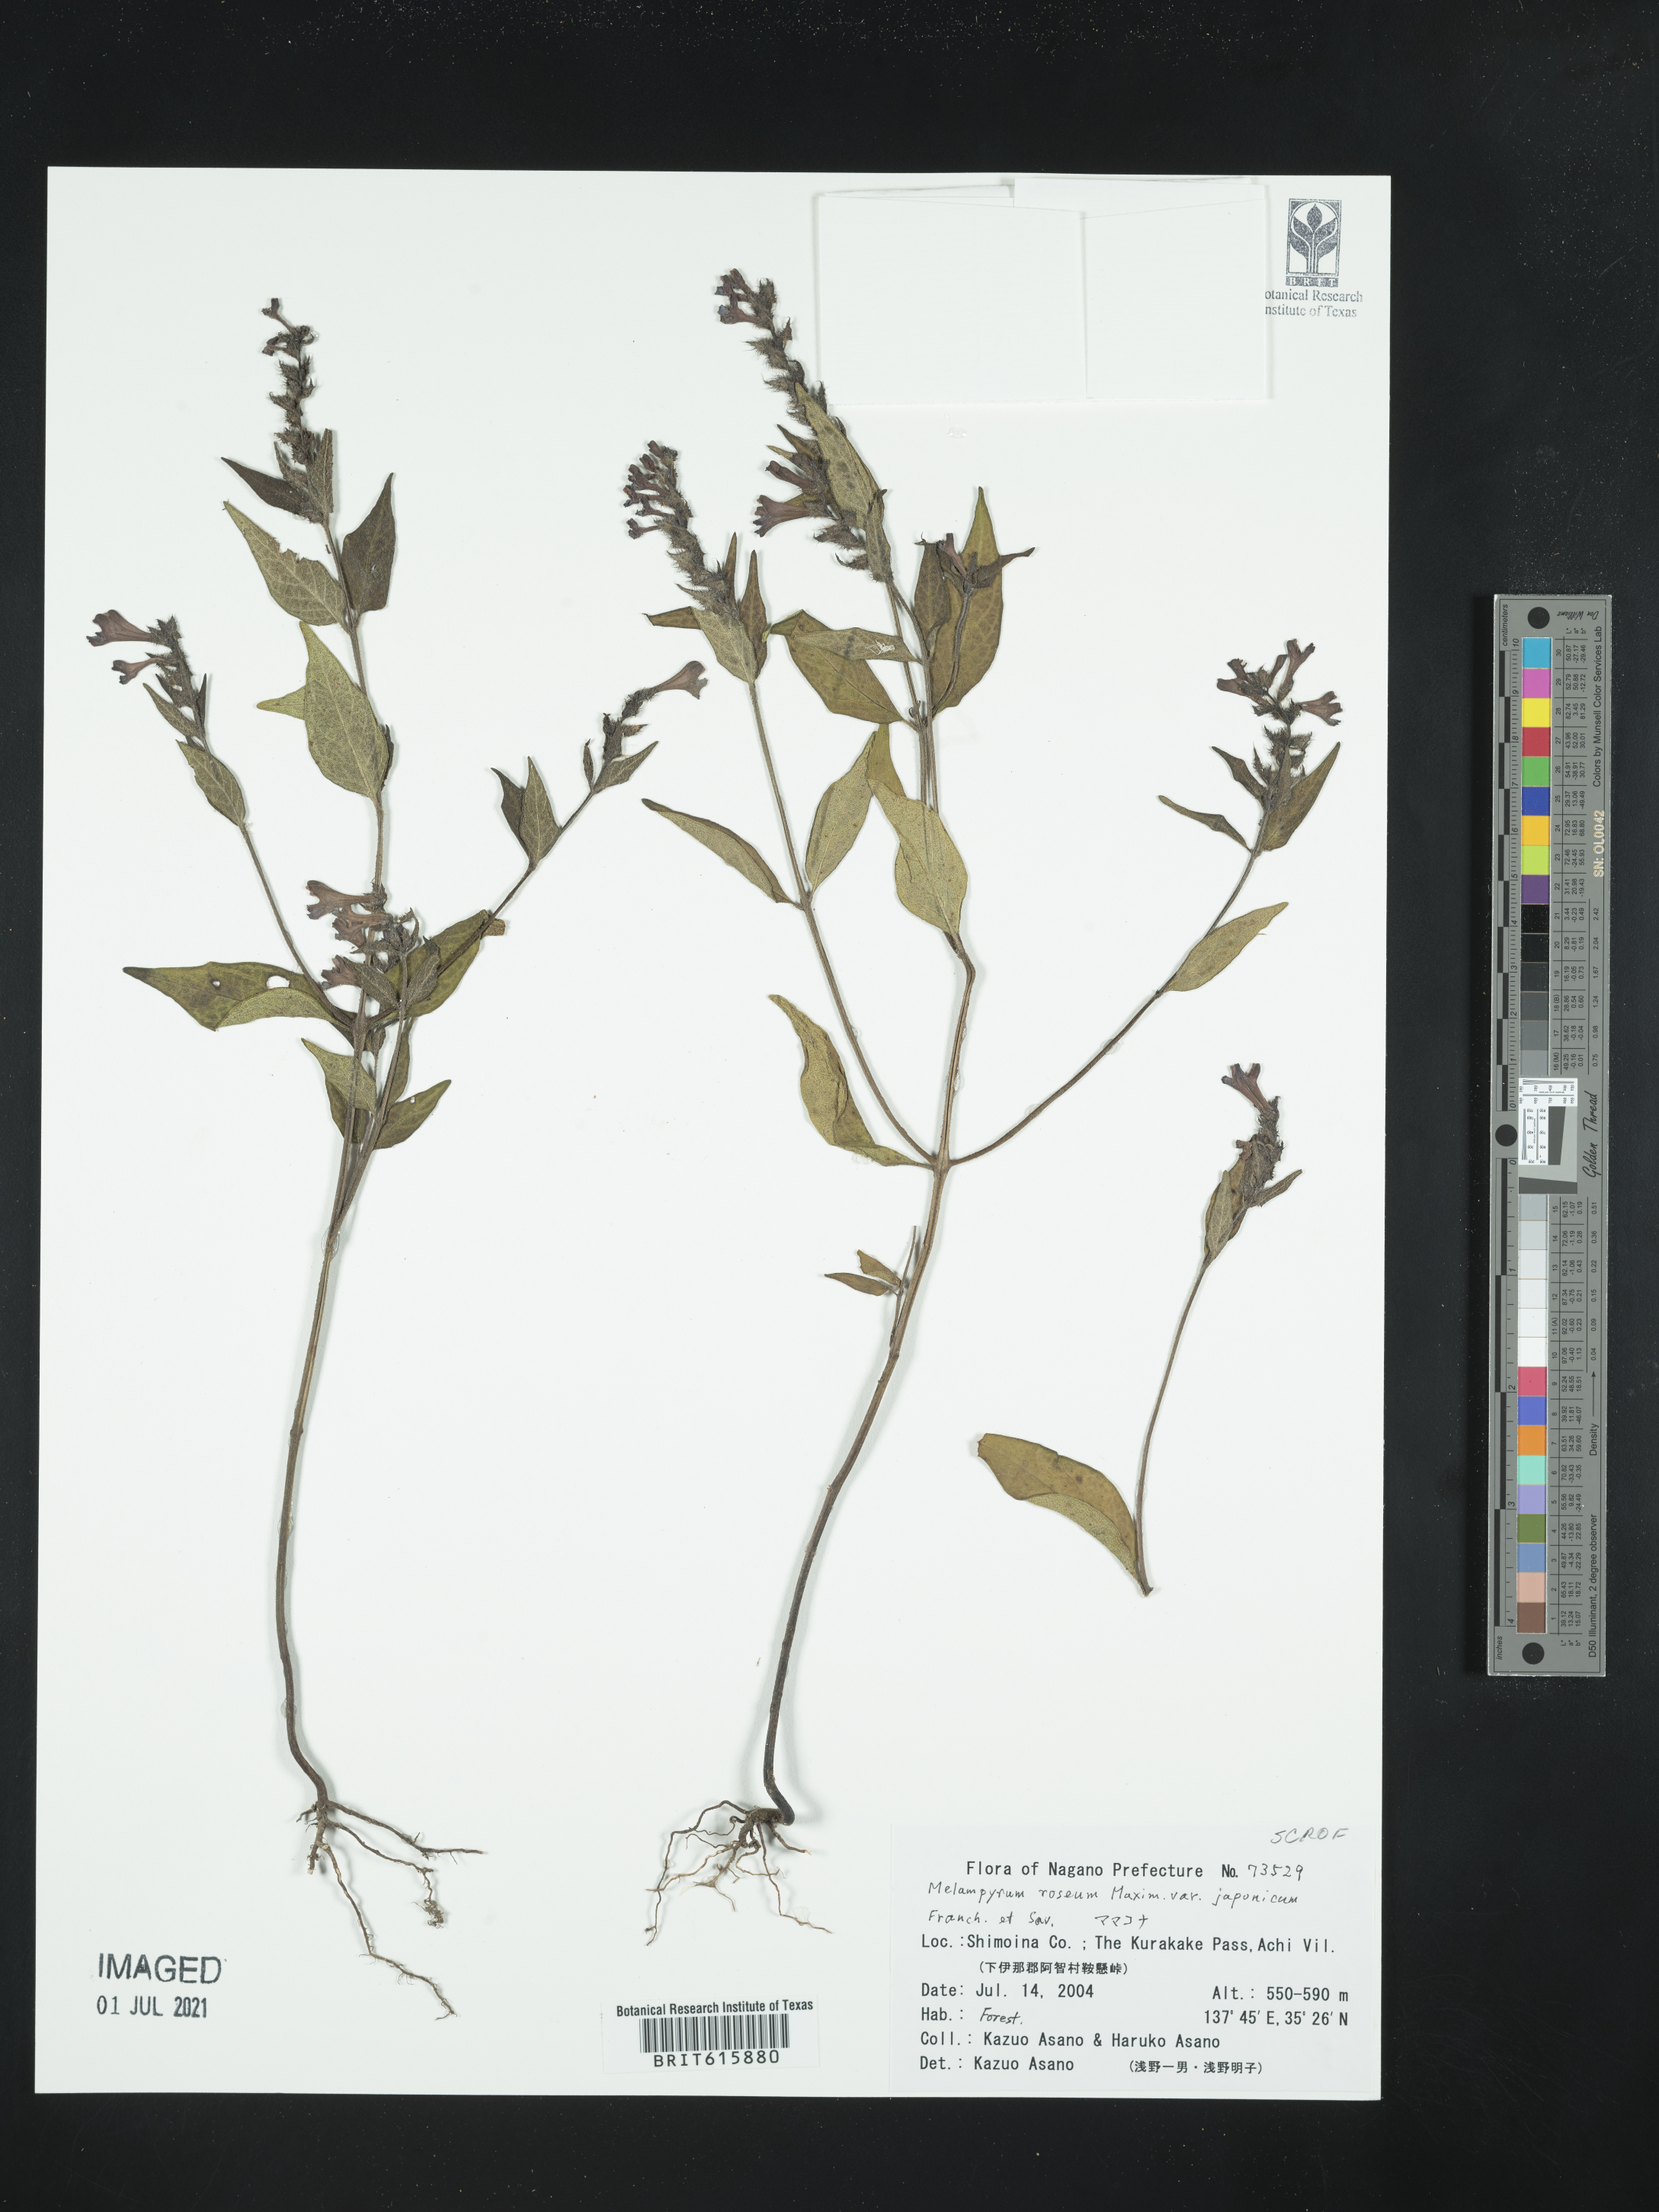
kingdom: Plantae
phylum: Tracheophyta
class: Magnoliopsida
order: Lamiales
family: Orobanchaceae
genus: Melampyrum
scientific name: Melampyrum roseum
